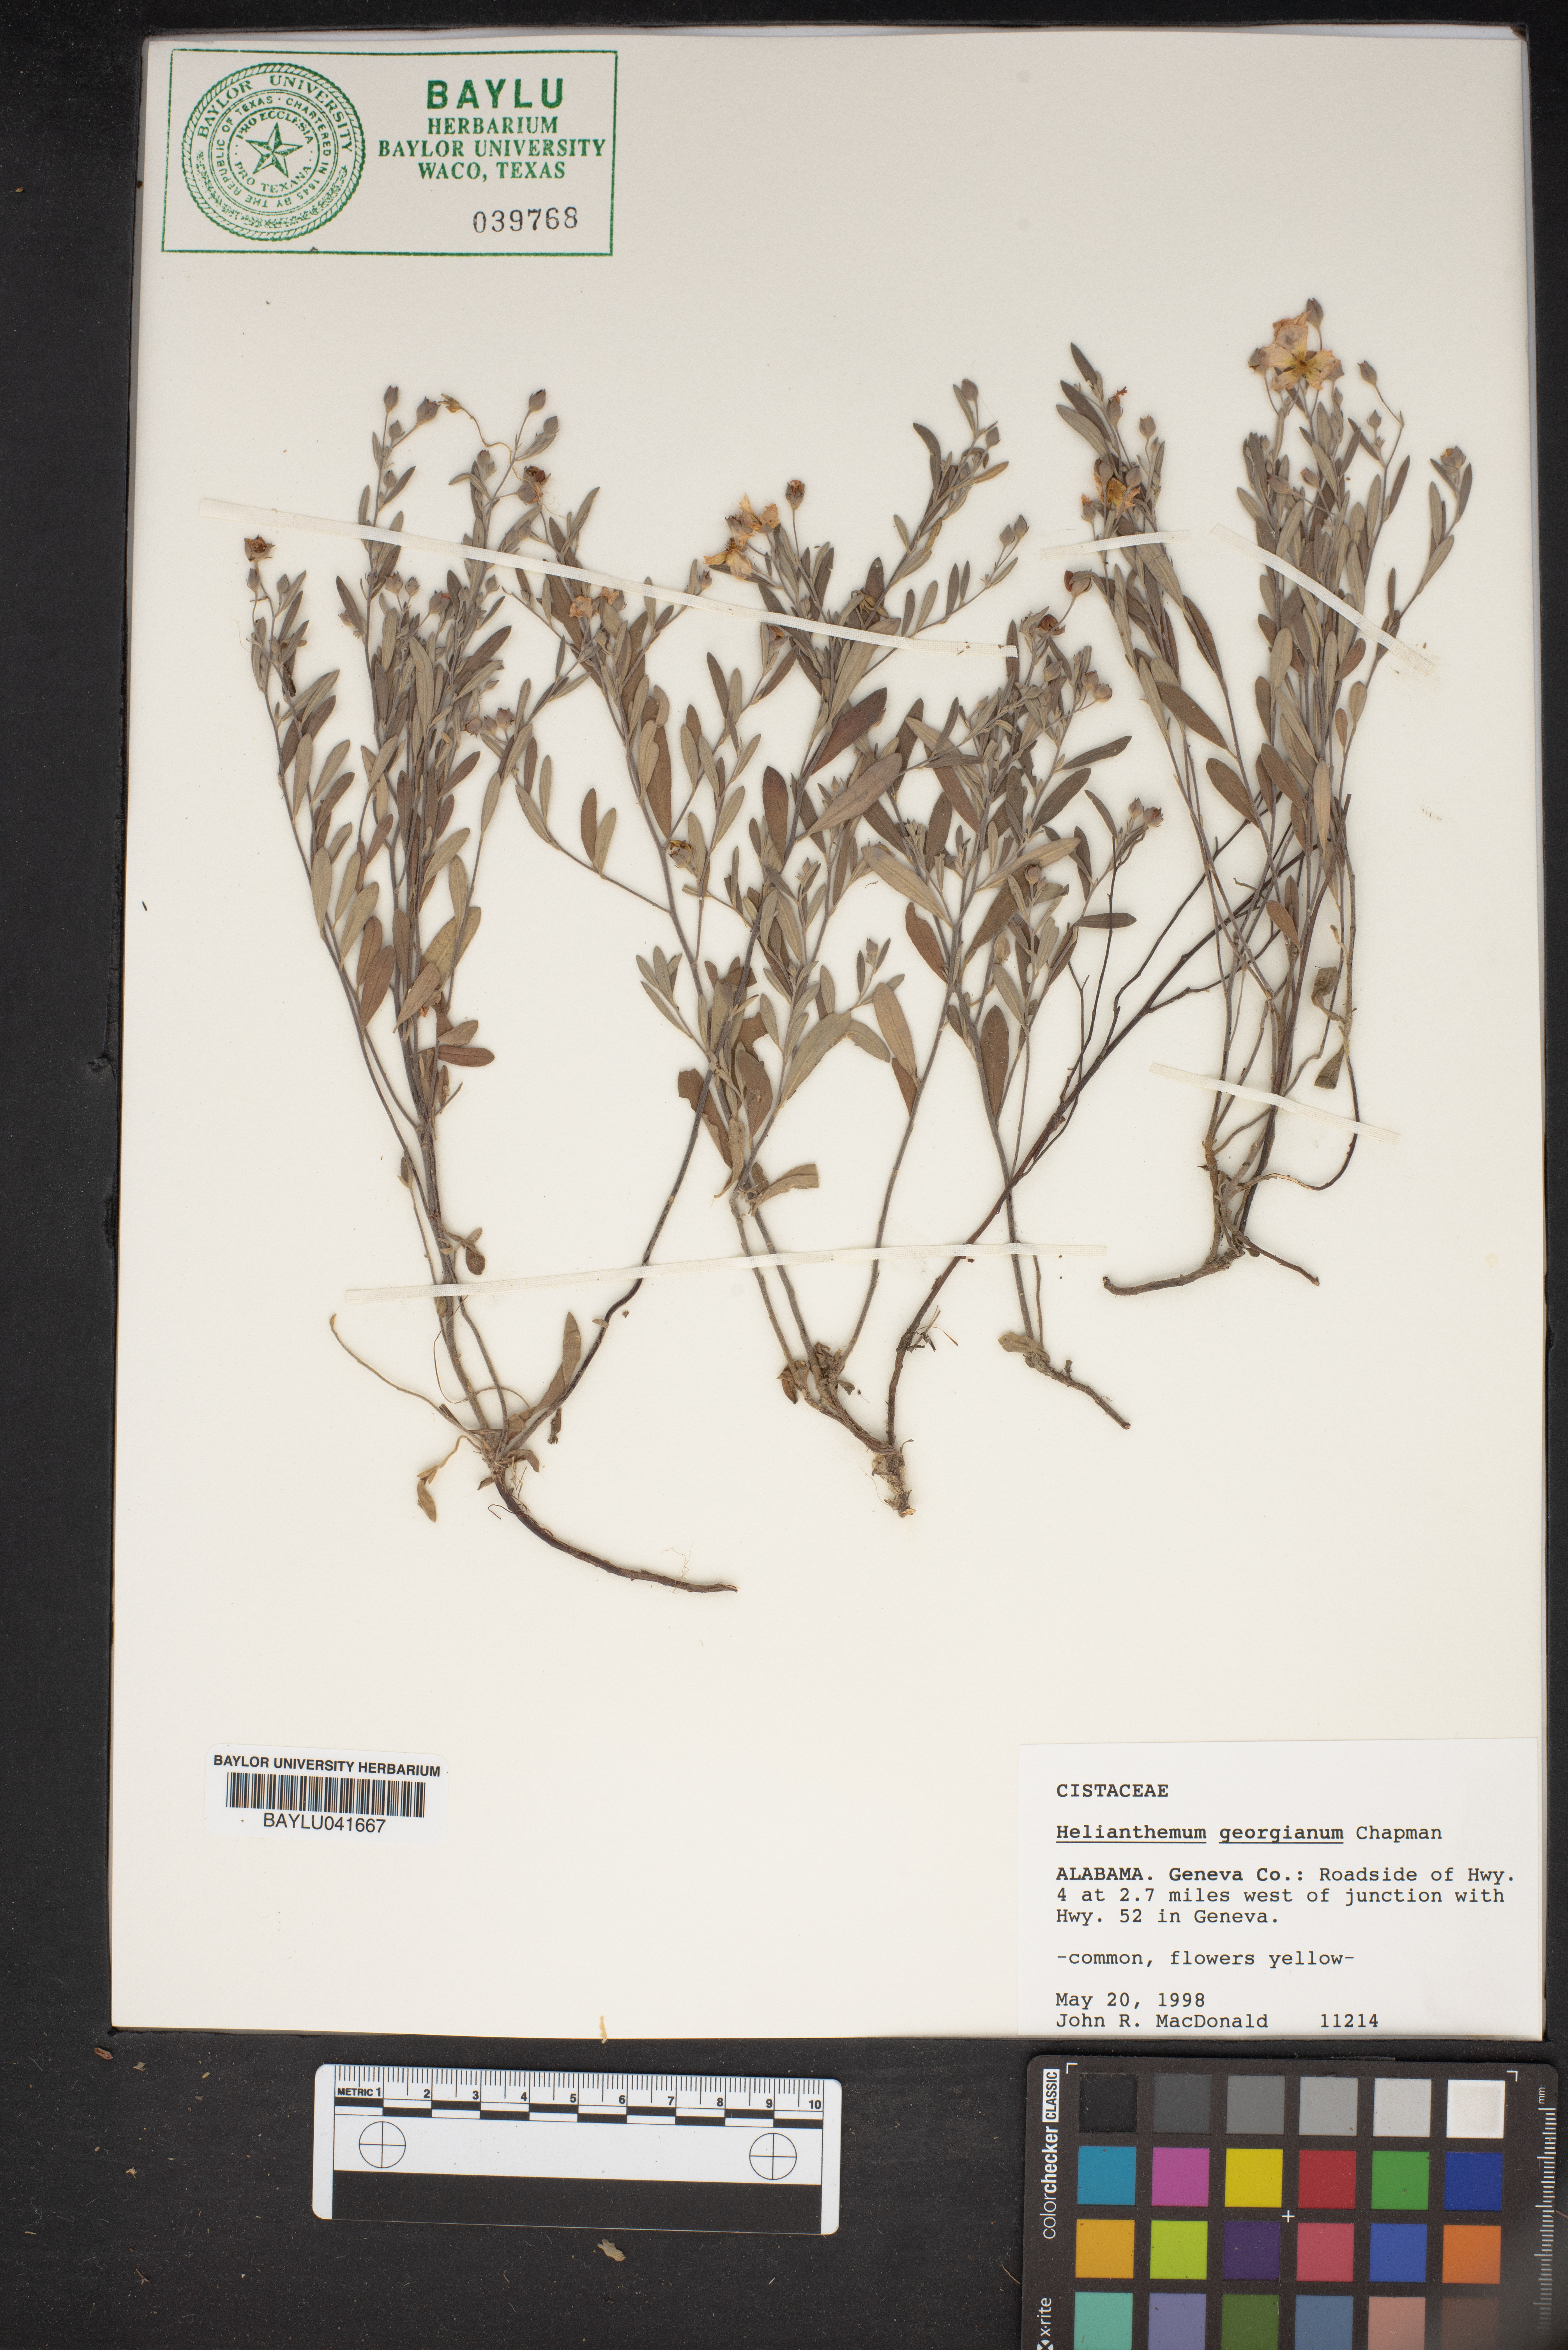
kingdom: Plantae
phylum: Tracheophyta
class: Magnoliopsida
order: Malvales
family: Cistaceae
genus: Crocanthemum
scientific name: Crocanthemum georgianum
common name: Georgia frostweed
